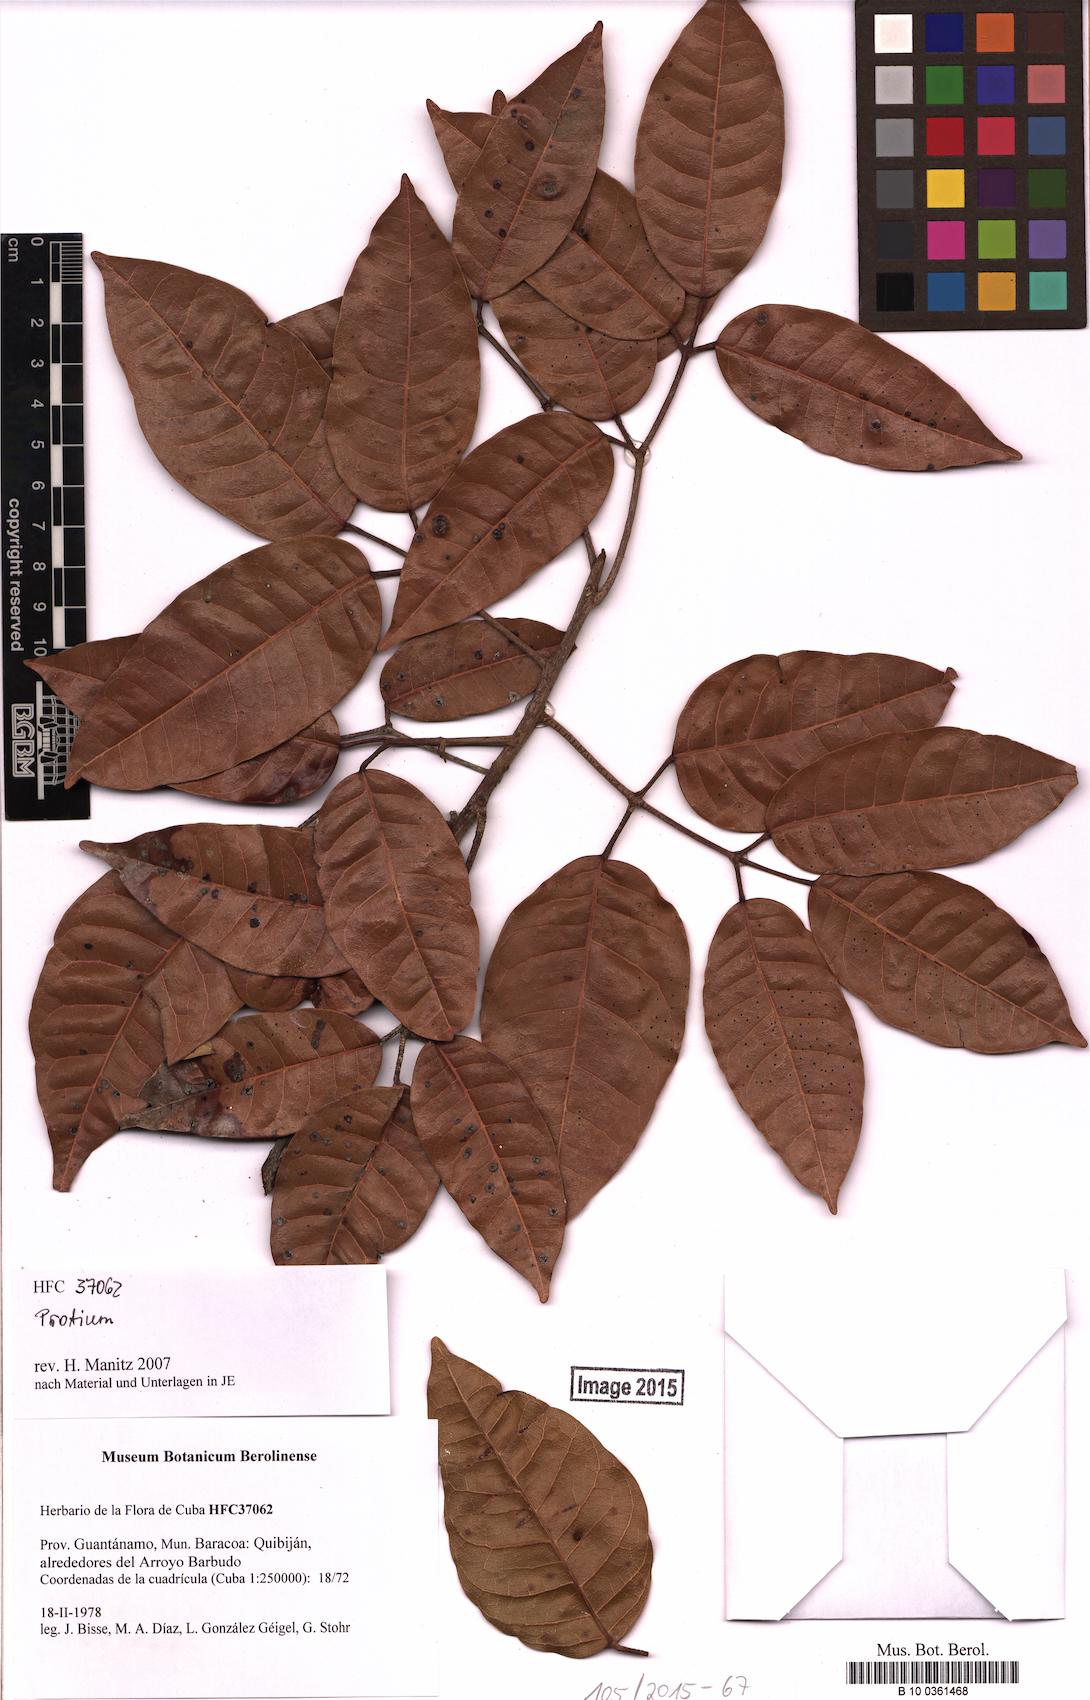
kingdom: Plantae
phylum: Tracheophyta
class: Magnoliopsida
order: Sapindales
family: Burseraceae
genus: Protium
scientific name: Protium
